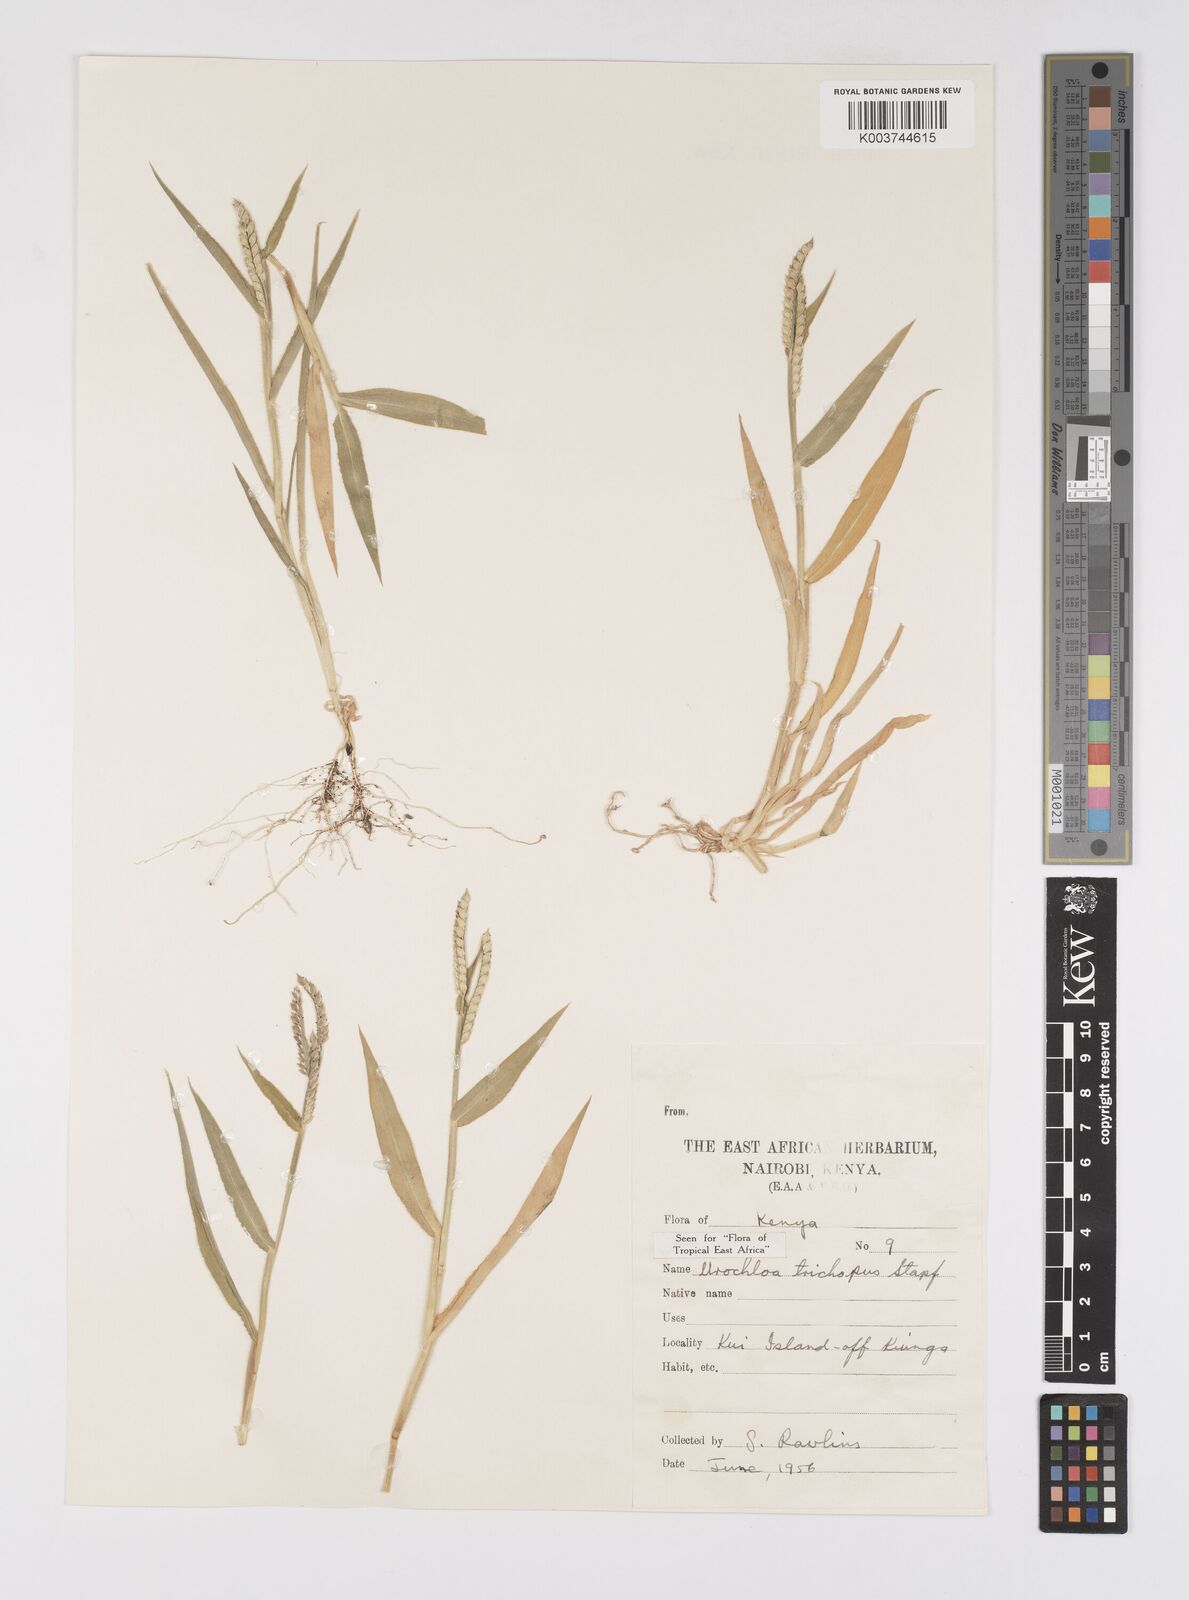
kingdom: Plantae
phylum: Tracheophyta
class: Liliopsida
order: Poales
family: Poaceae
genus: Urochloa
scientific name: Urochloa trichopus
